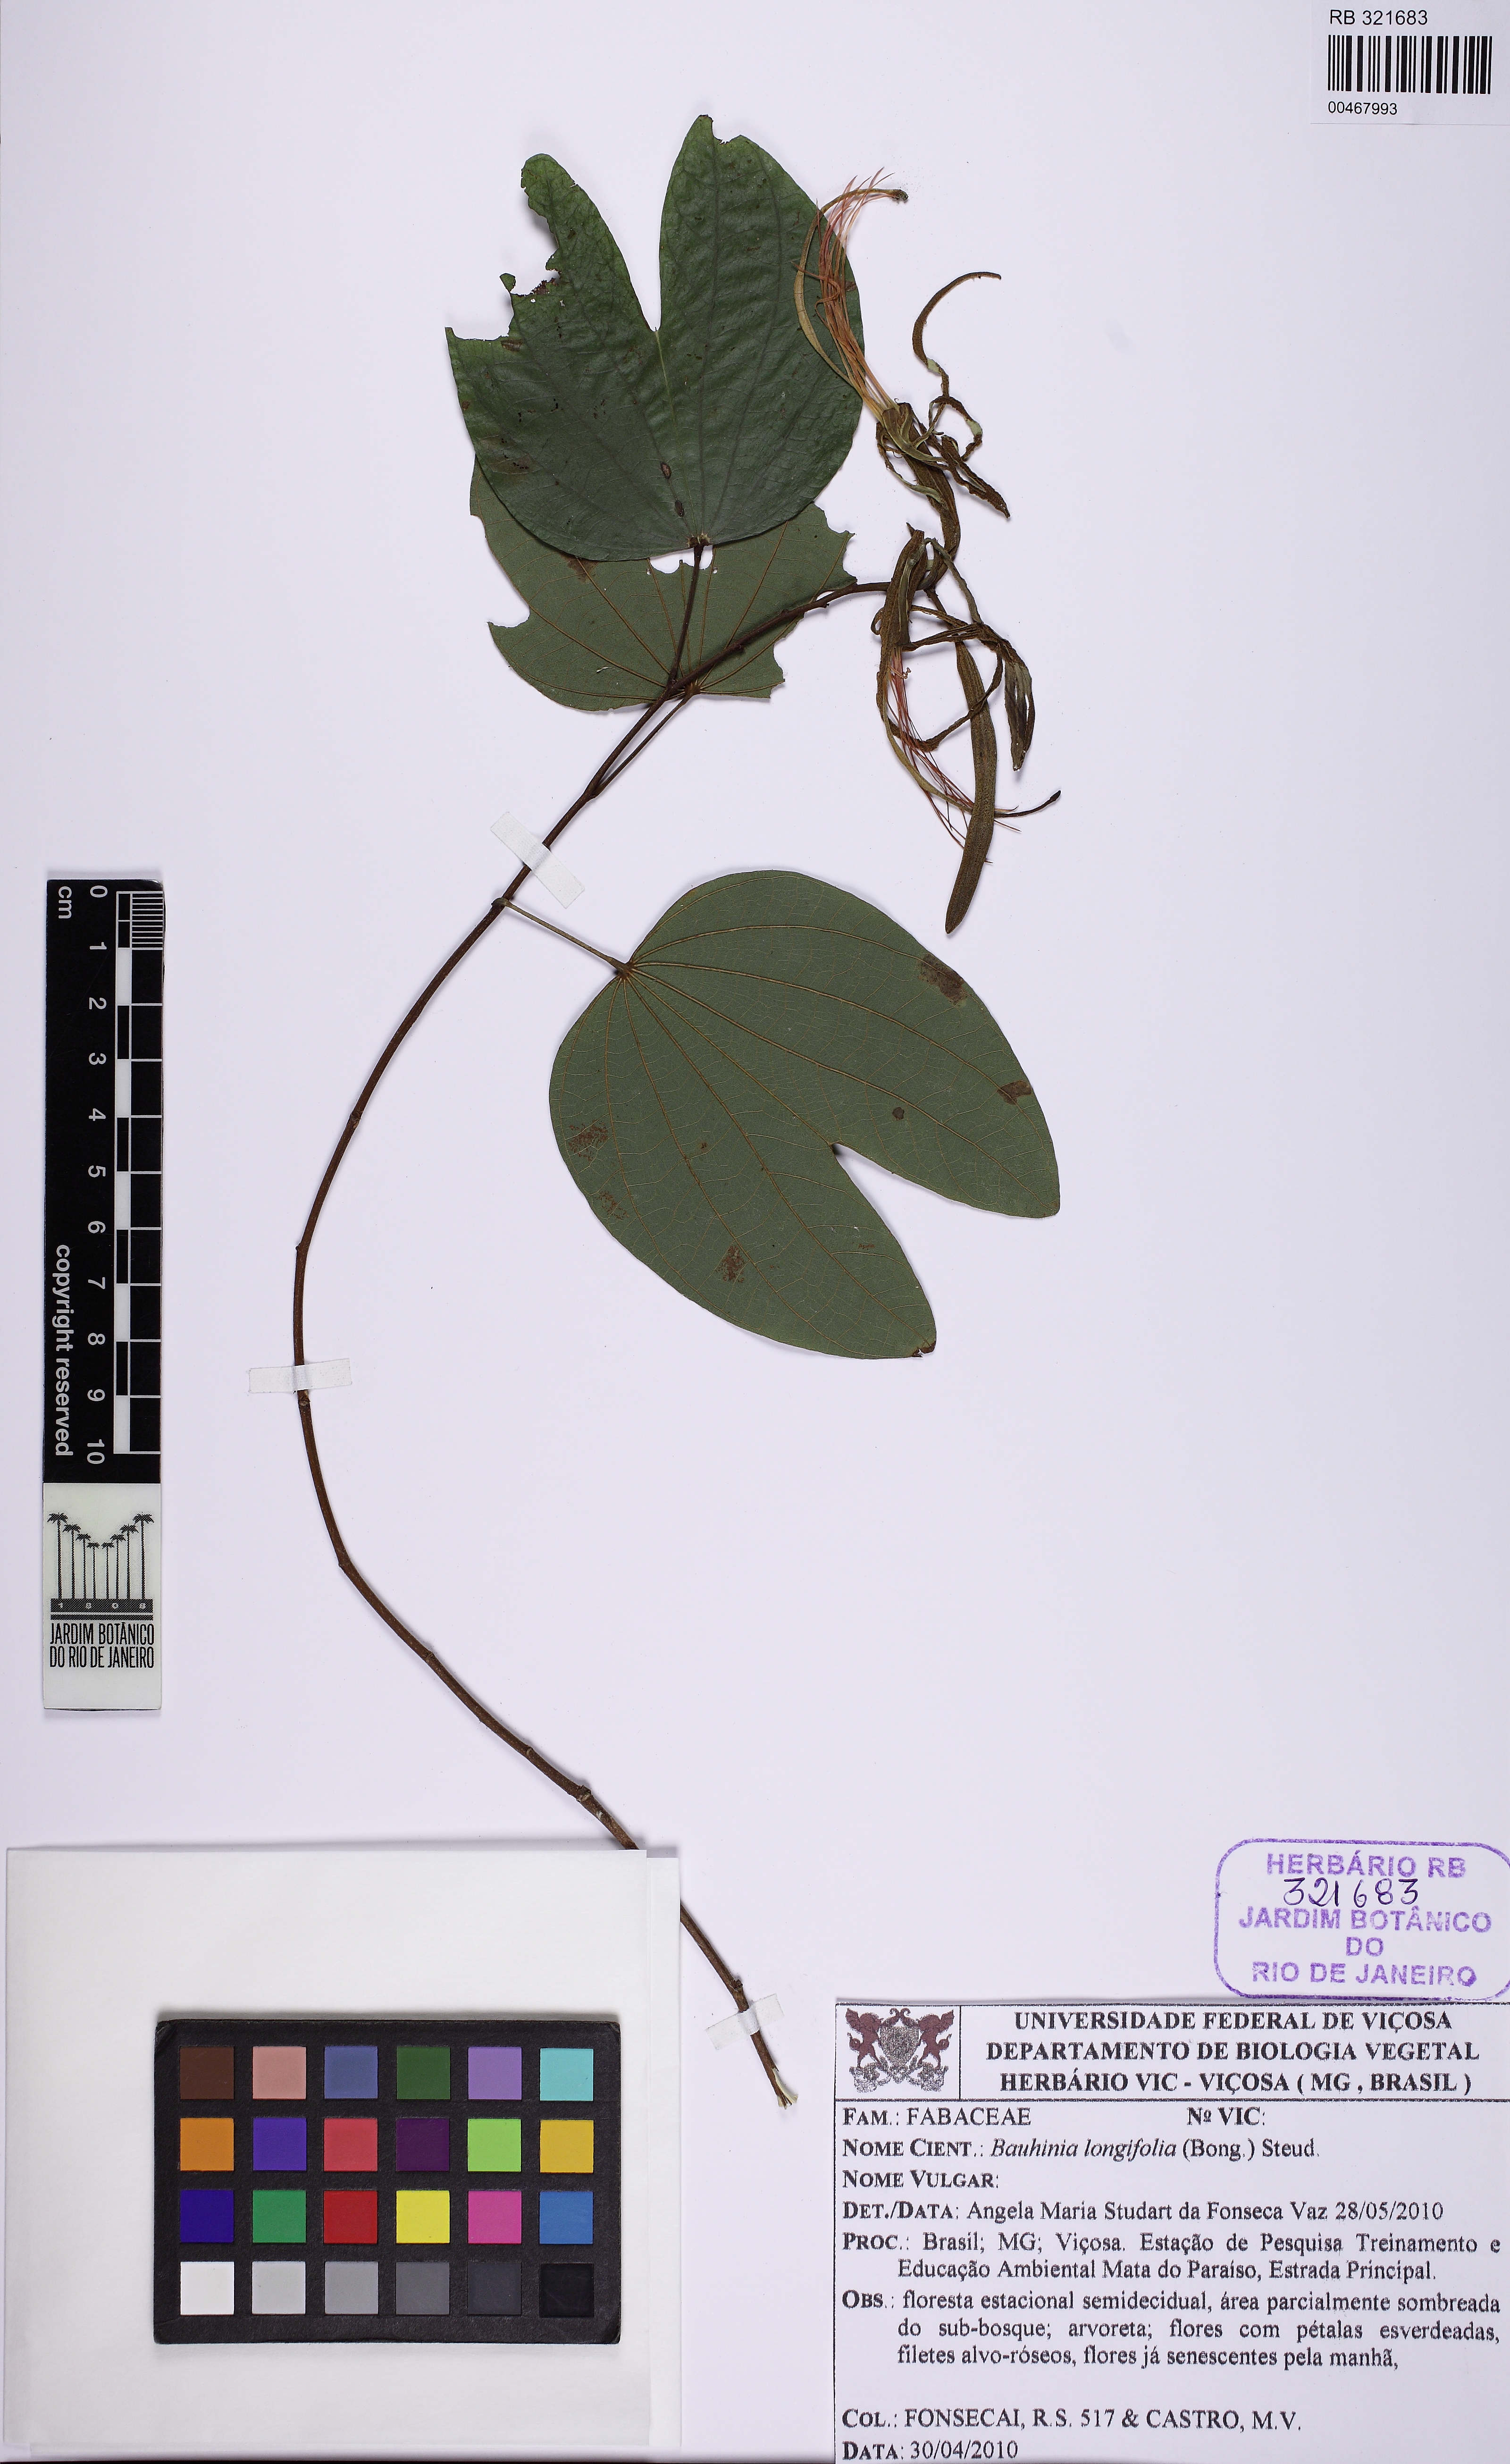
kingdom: Plantae
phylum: Tracheophyta
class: Magnoliopsida
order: Fabales
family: Fabaceae
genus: Bauhinia
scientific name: Bauhinia longifolia
